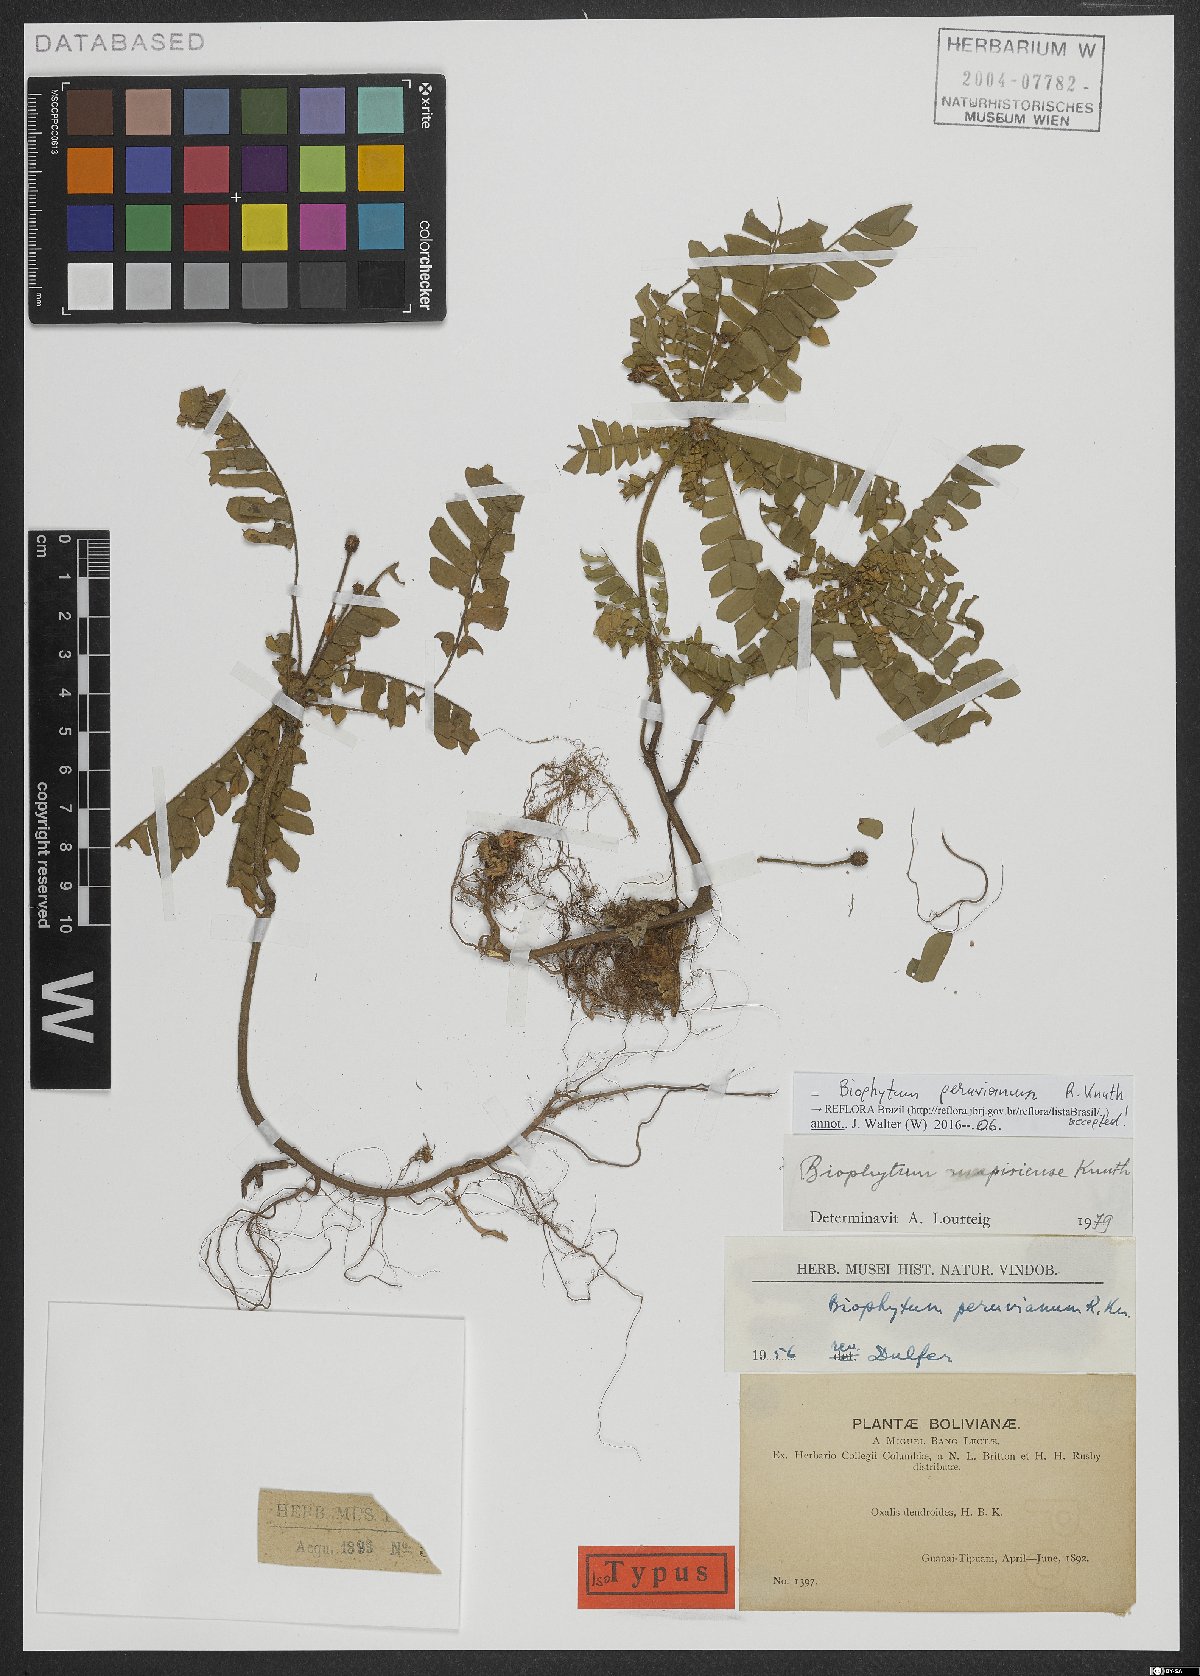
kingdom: Plantae
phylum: Tracheophyta
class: Magnoliopsida
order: Oxalidales
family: Oxalidaceae
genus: Biophytum
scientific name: Biophytum peruvianum
